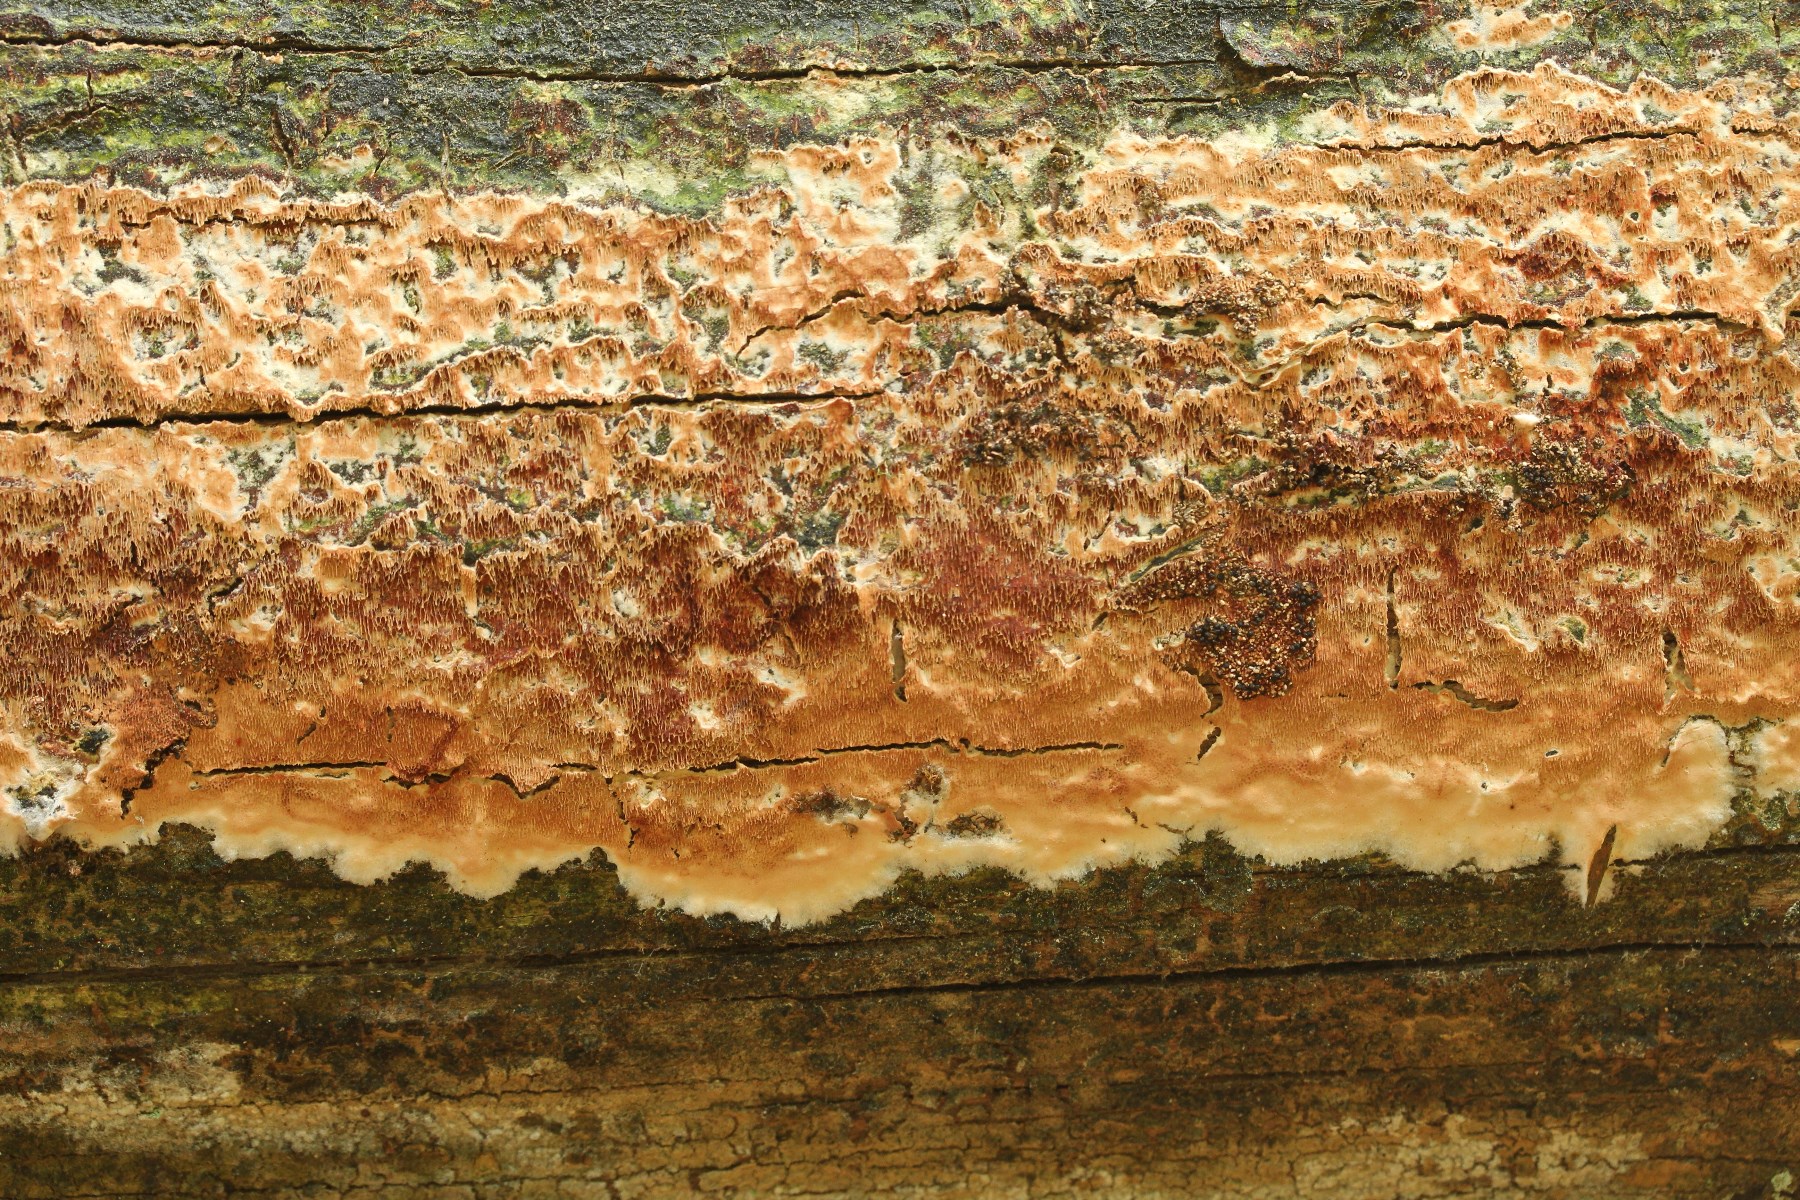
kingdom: Fungi
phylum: Basidiomycota
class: Agaricomycetes
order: Polyporales
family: Irpicaceae
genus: Meruliopsis
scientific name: Meruliopsis taxicola
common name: purpurbrun foldporesvamp
